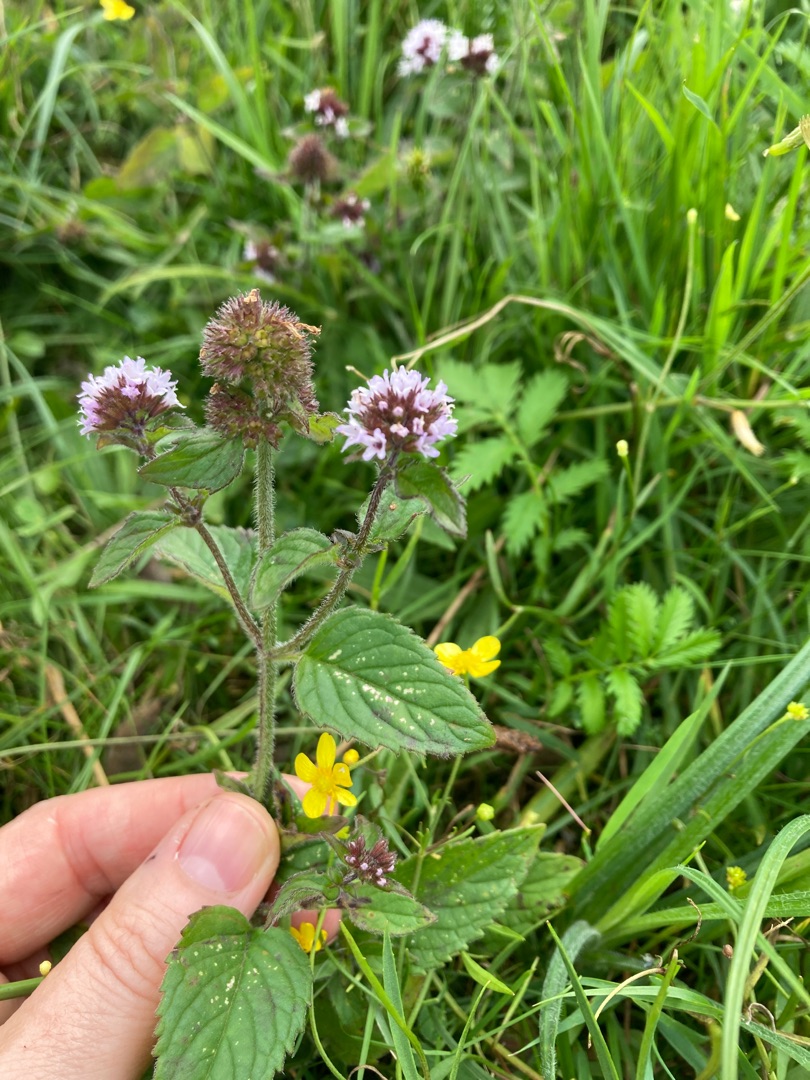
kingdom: Plantae
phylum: Tracheophyta
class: Magnoliopsida
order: Lamiales
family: Lamiaceae
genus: Mentha
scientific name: Mentha aquatica
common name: Vand-mynte
